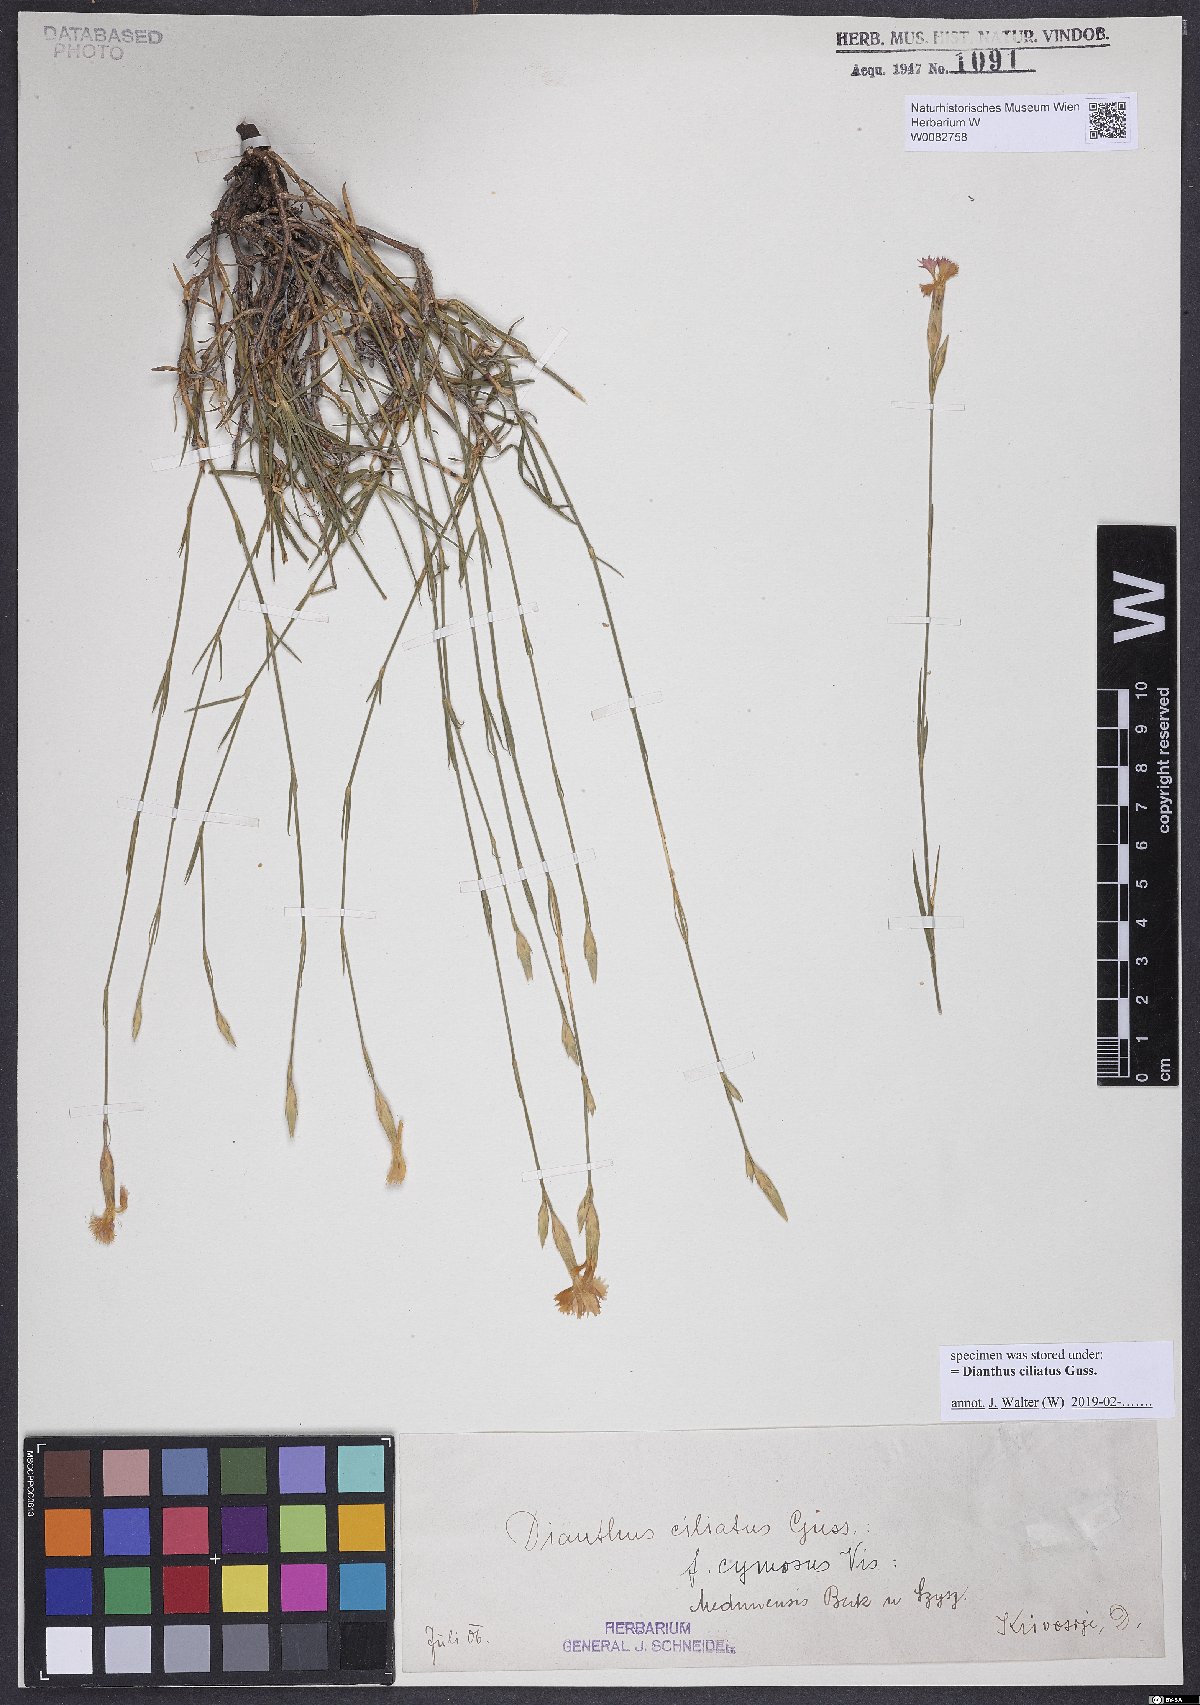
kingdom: Plantae
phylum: Tracheophyta
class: Magnoliopsida
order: Caryophyllales
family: Caryophyllaceae
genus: Dianthus
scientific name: Dianthus ciliatus
